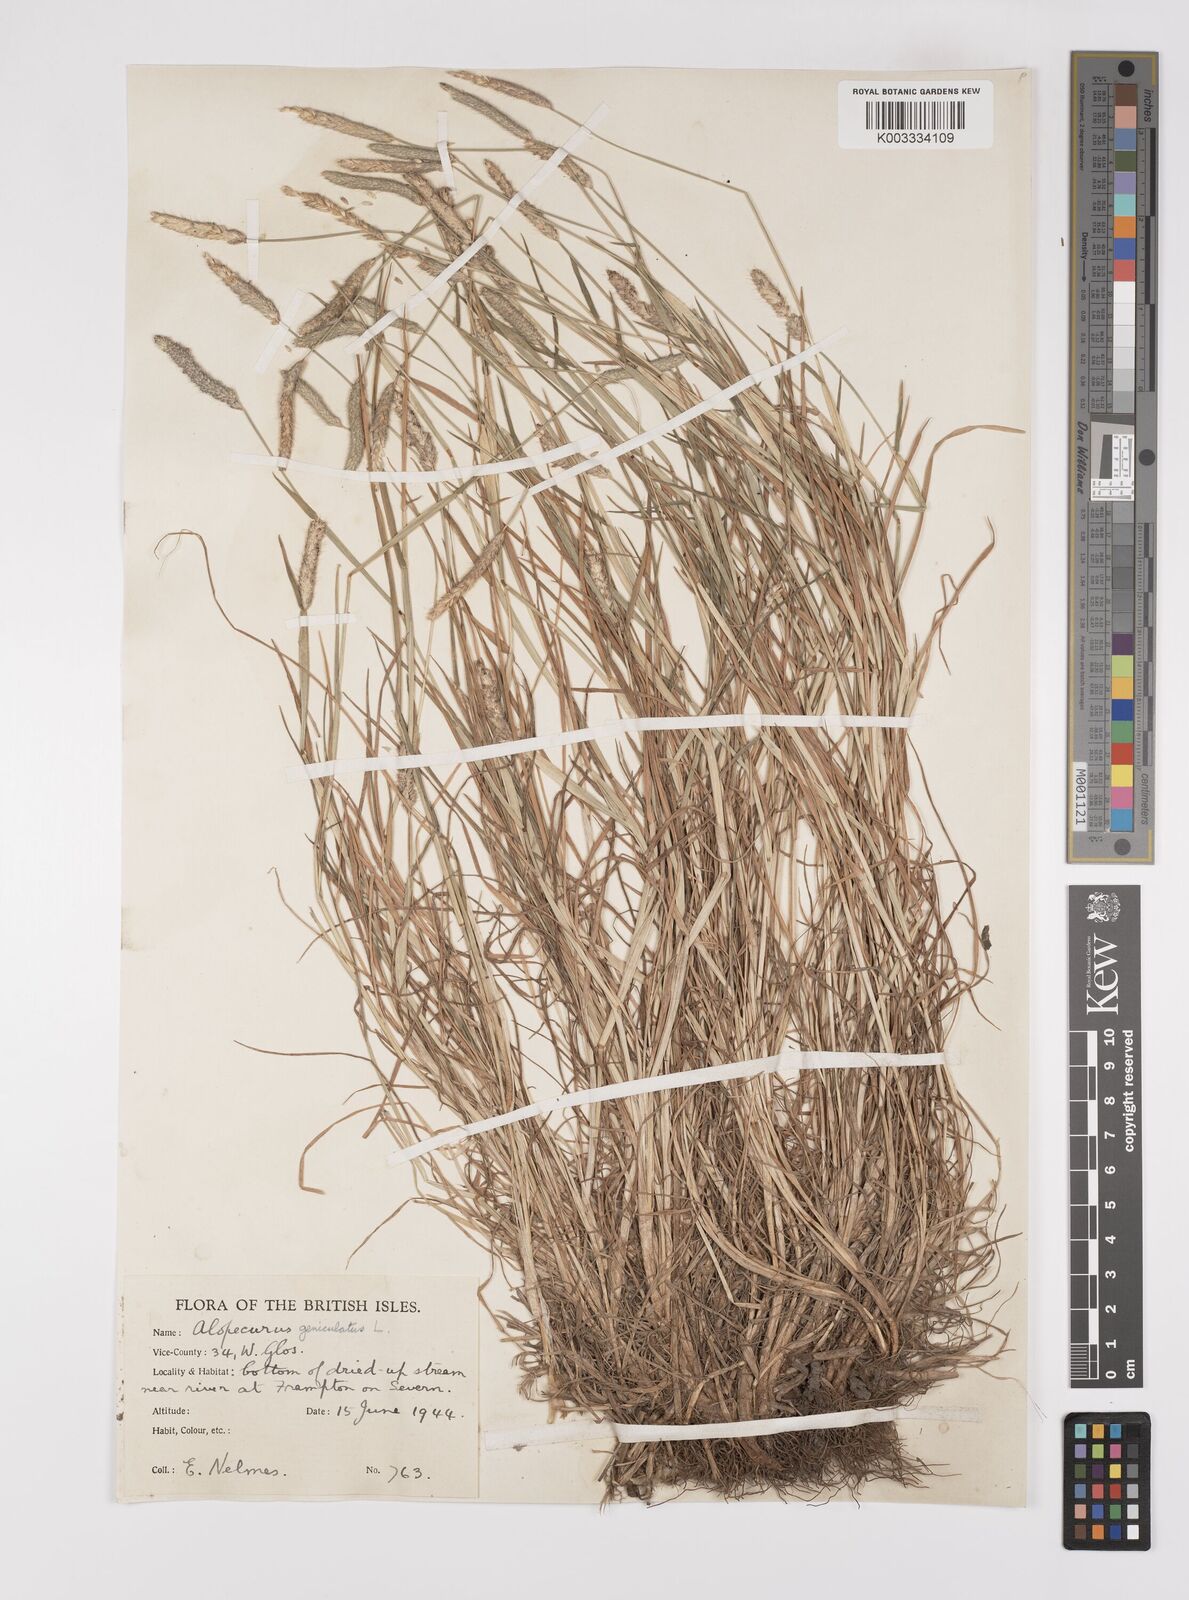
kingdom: Plantae
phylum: Tracheophyta
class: Liliopsida
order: Poales
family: Poaceae
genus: Alopecurus
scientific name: Alopecurus geniculatus
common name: Water foxtail
